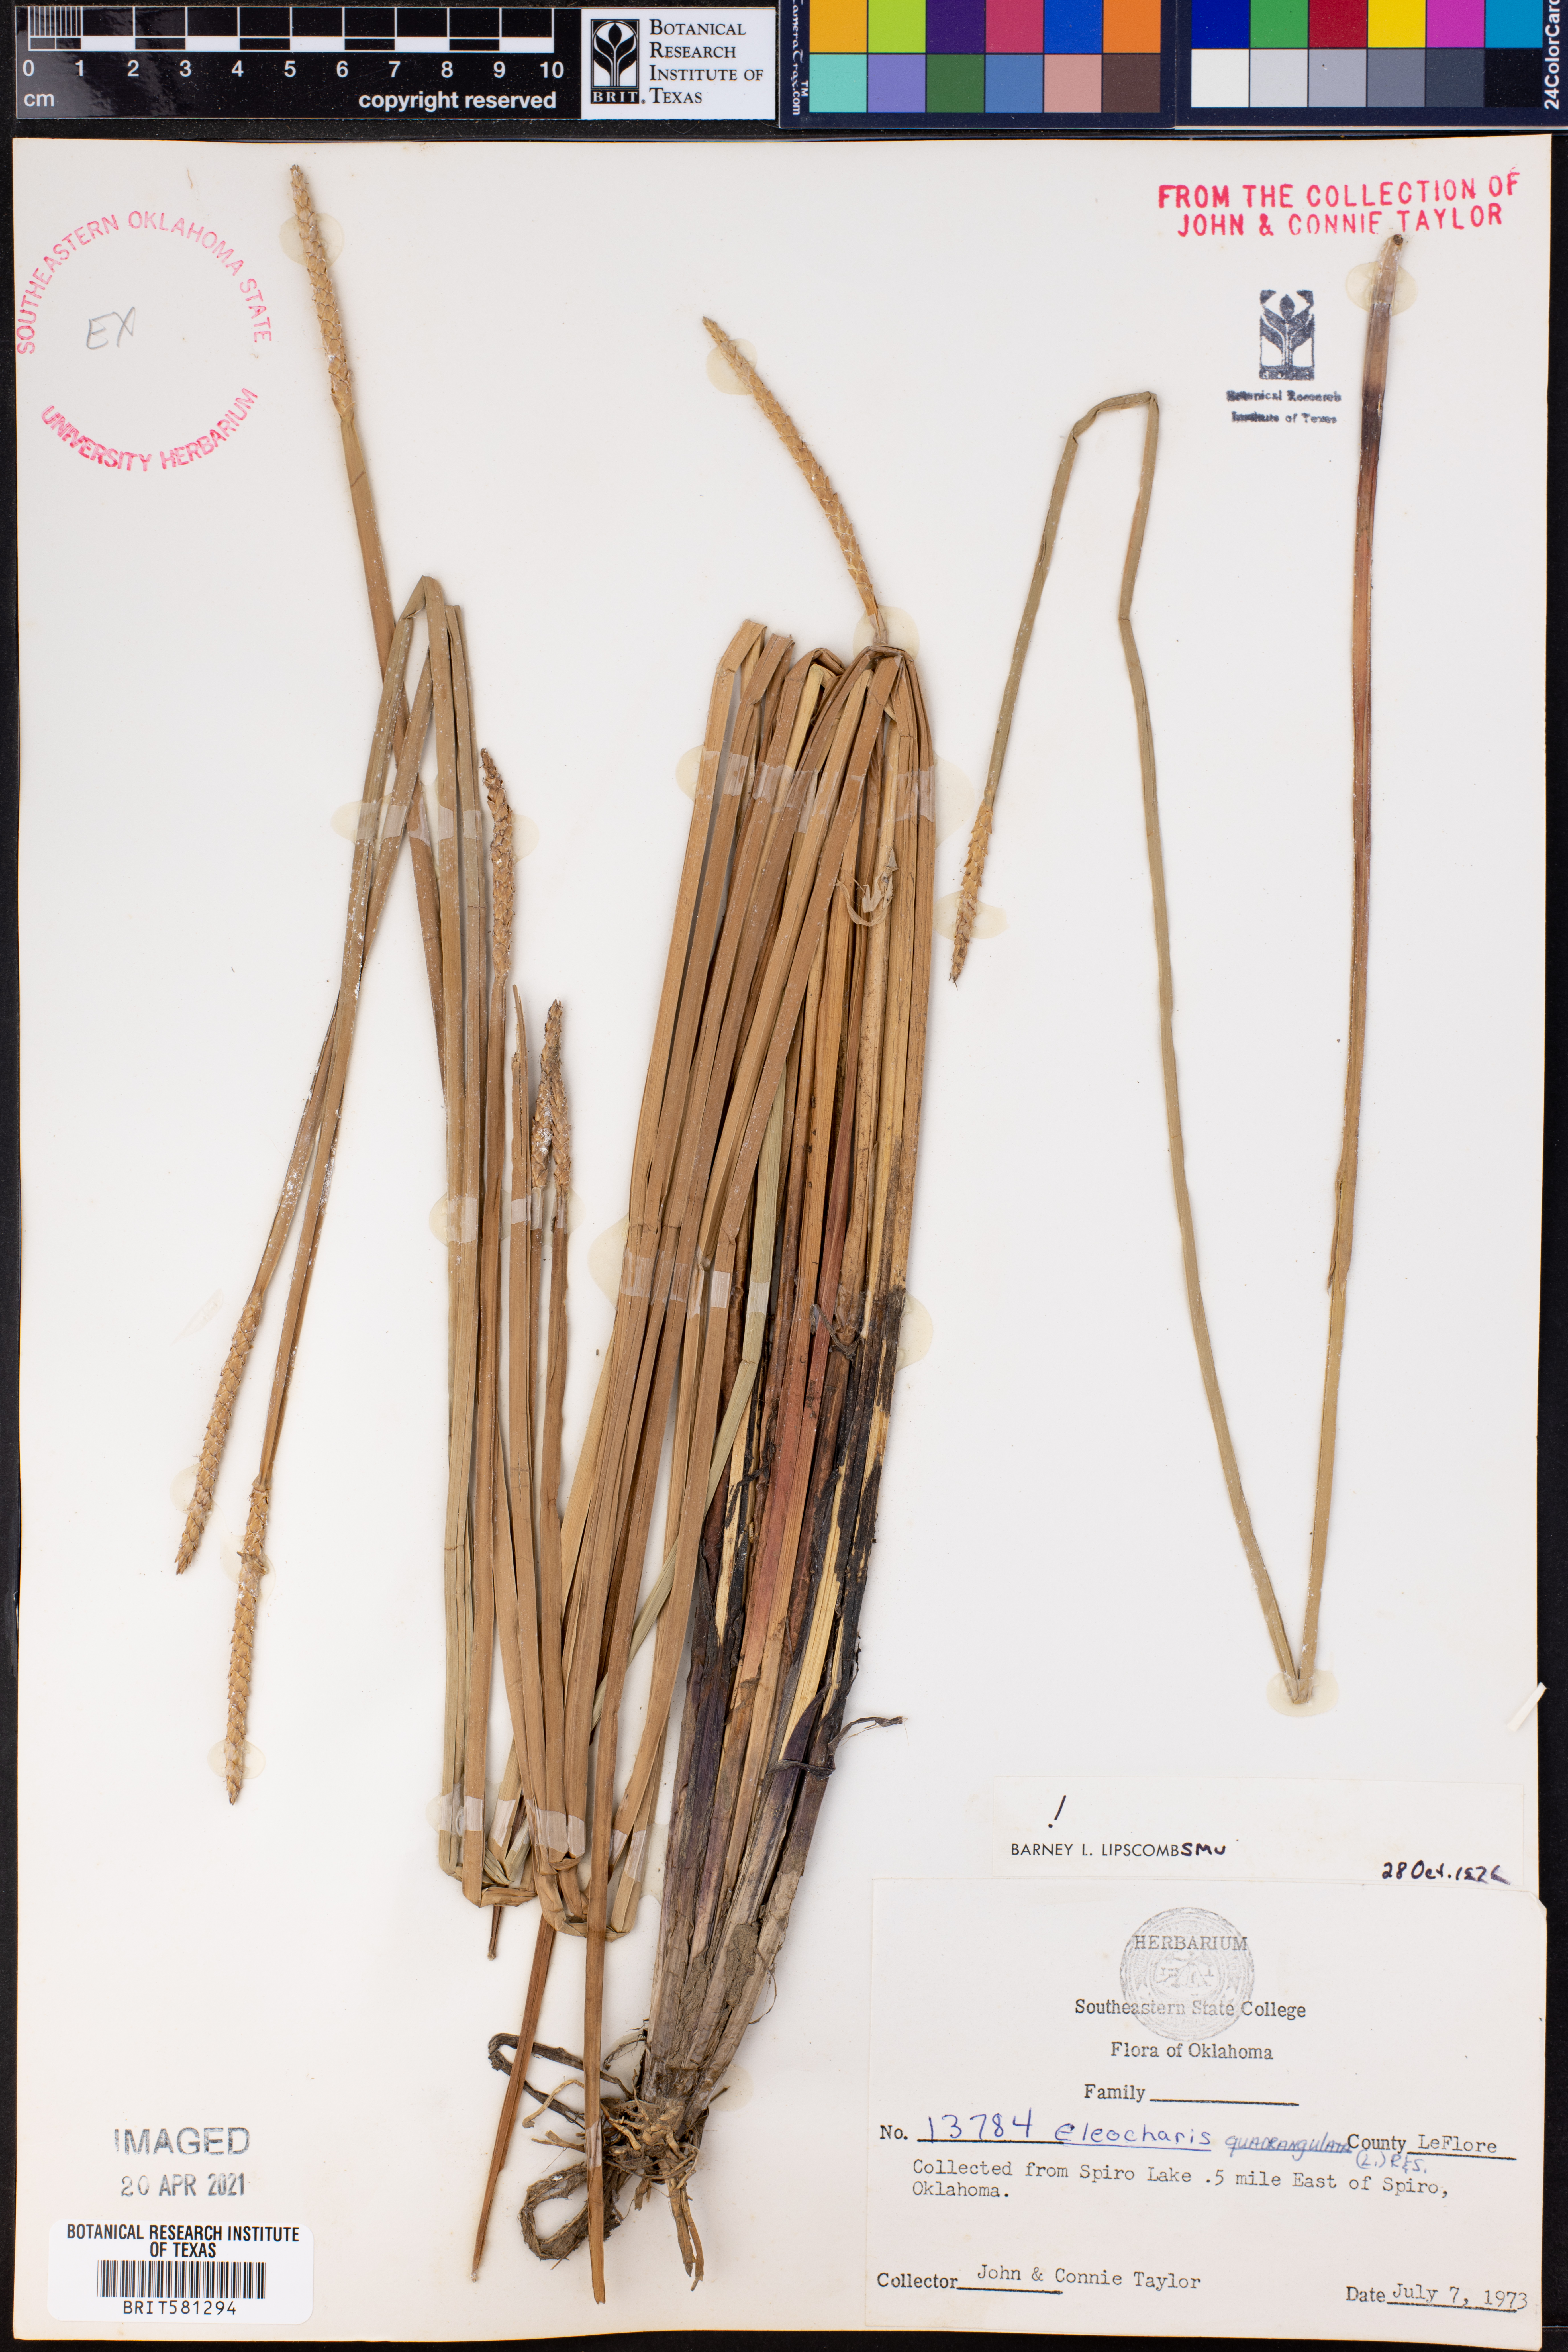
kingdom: Plantae
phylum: Tracheophyta
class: Liliopsida
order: Poales
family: Cyperaceae
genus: Eleocharis
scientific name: Eleocharis quadrangulata
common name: Square-stem spike-rush
